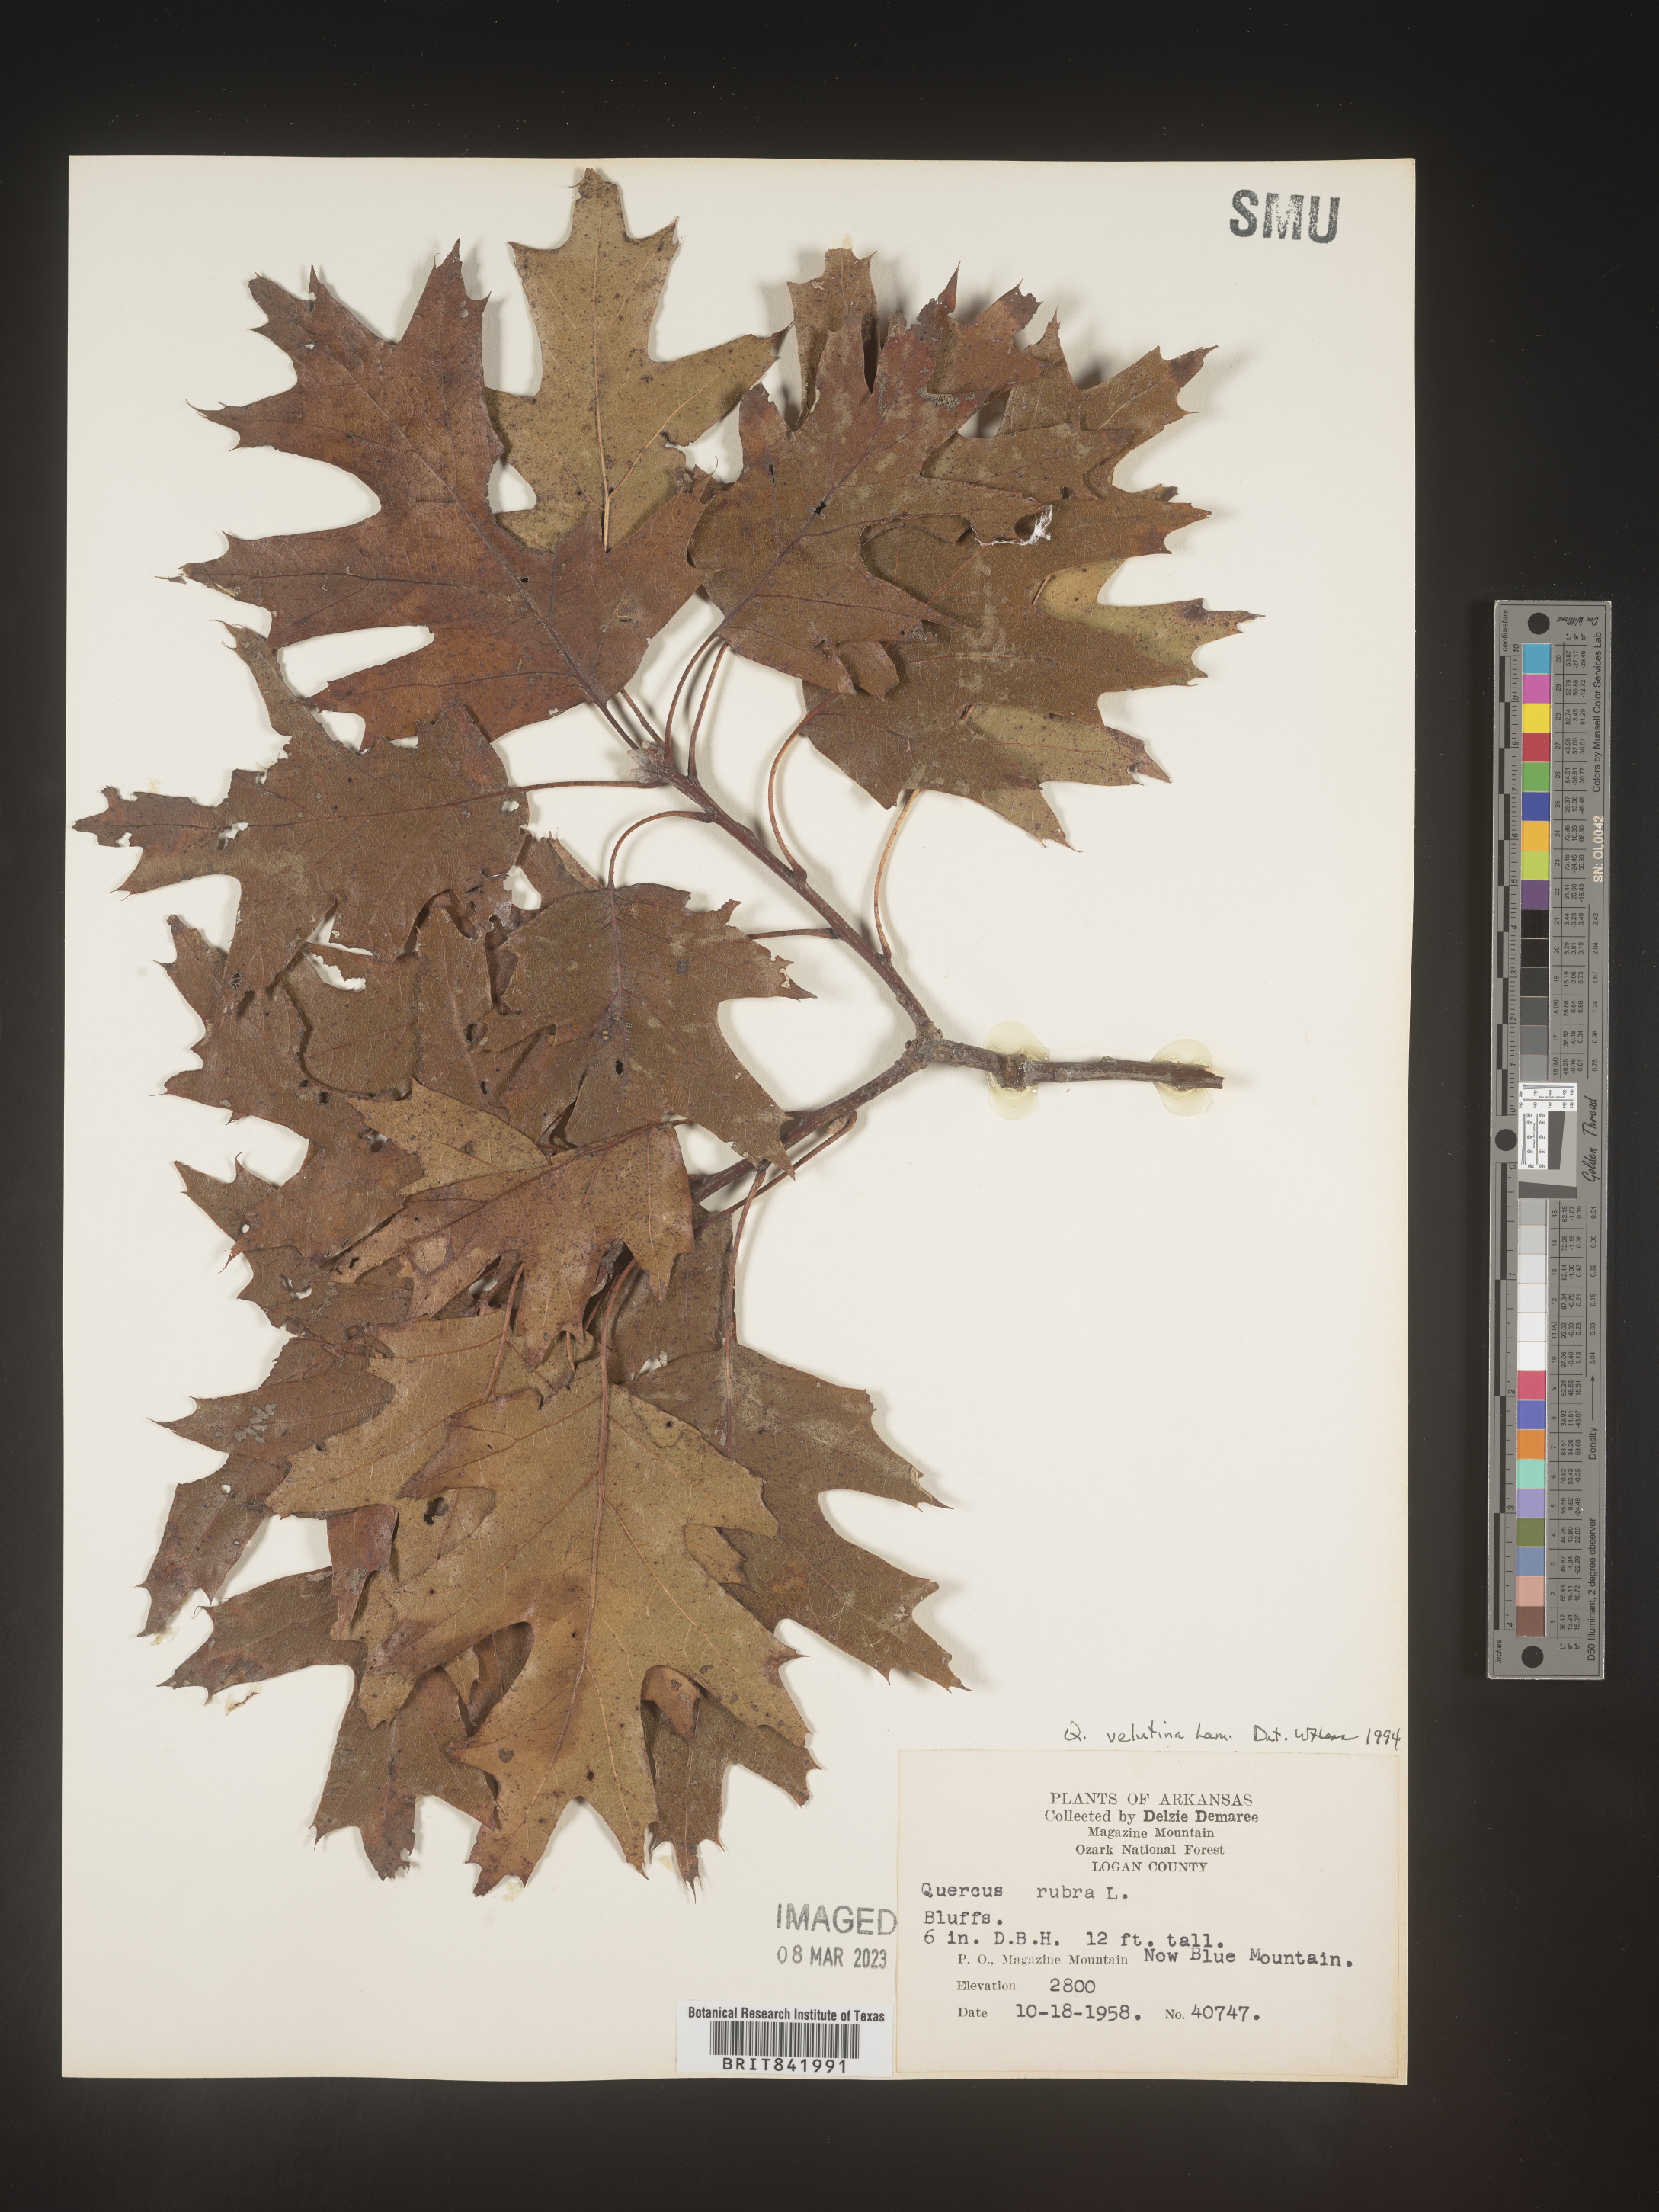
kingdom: Plantae
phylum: Tracheophyta
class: Magnoliopsida
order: Fagales
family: Fagaceae
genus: Quercus
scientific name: Quercus velutina
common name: Black oak
